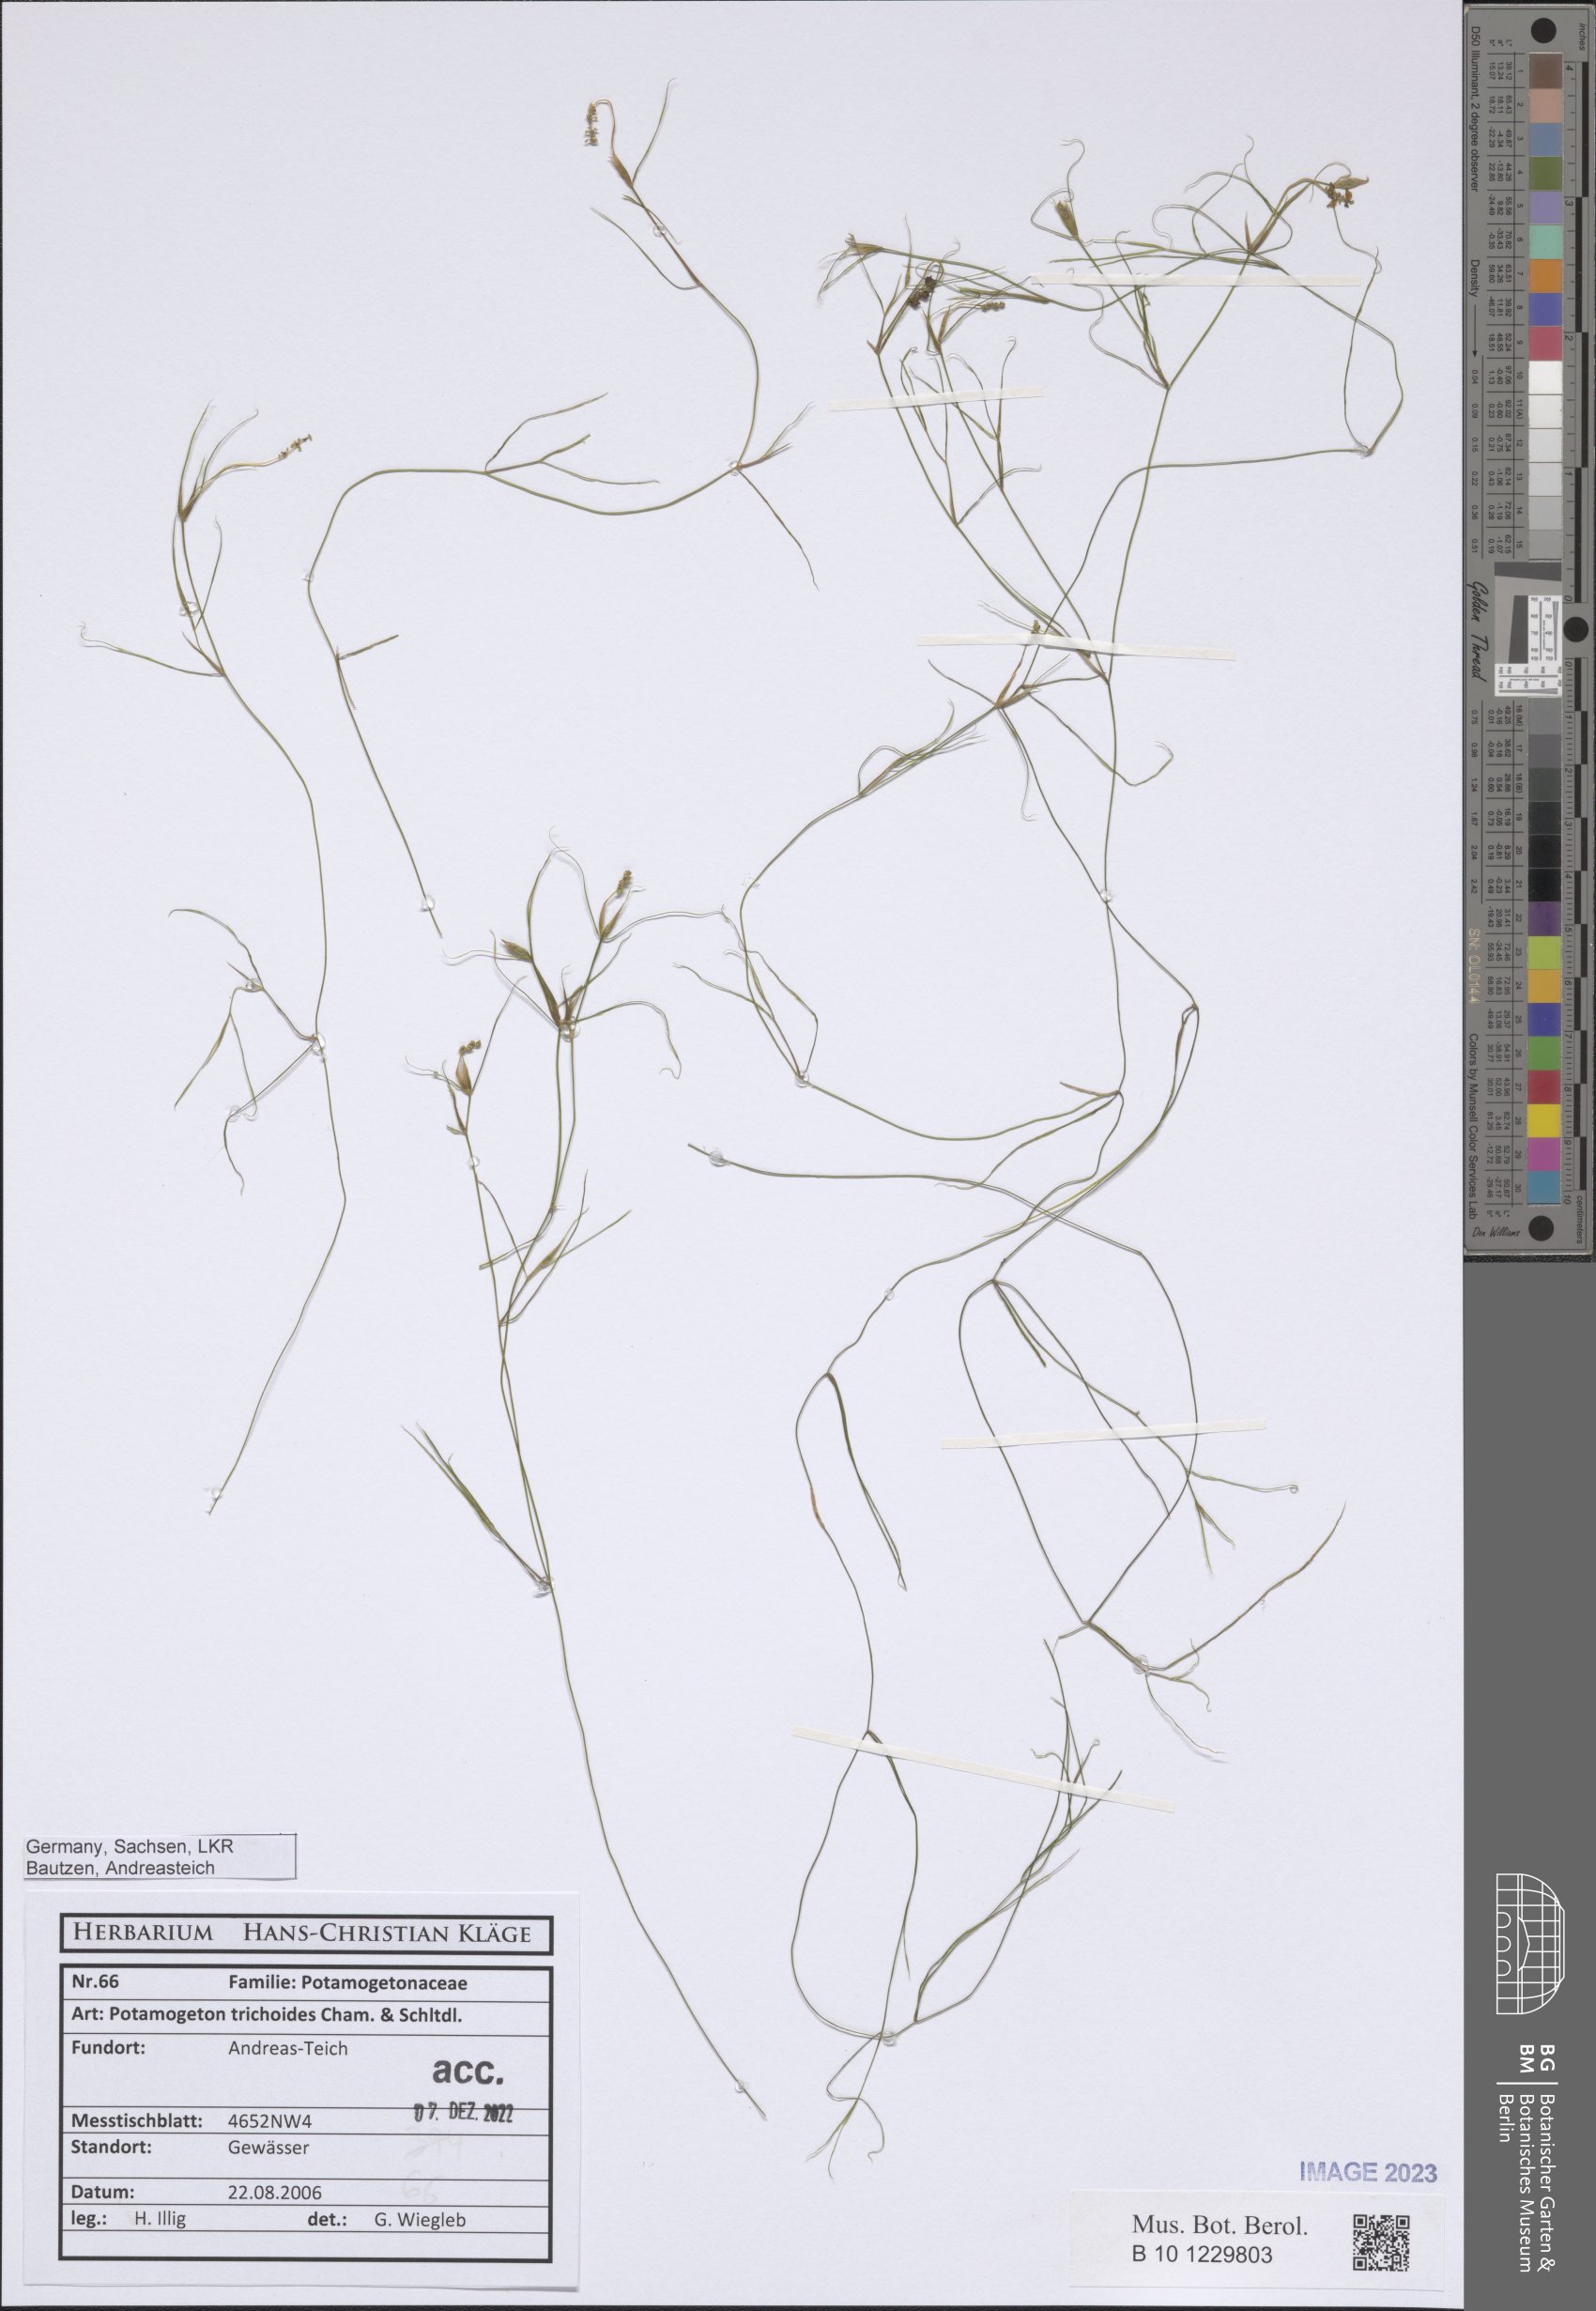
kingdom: Plantae
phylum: Tracheophyta
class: Liliopsida
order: Alismatales
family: Potamogetonaceae
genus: Potamogeton
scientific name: Potamogeton trichoides
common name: Hairlike pondweed
